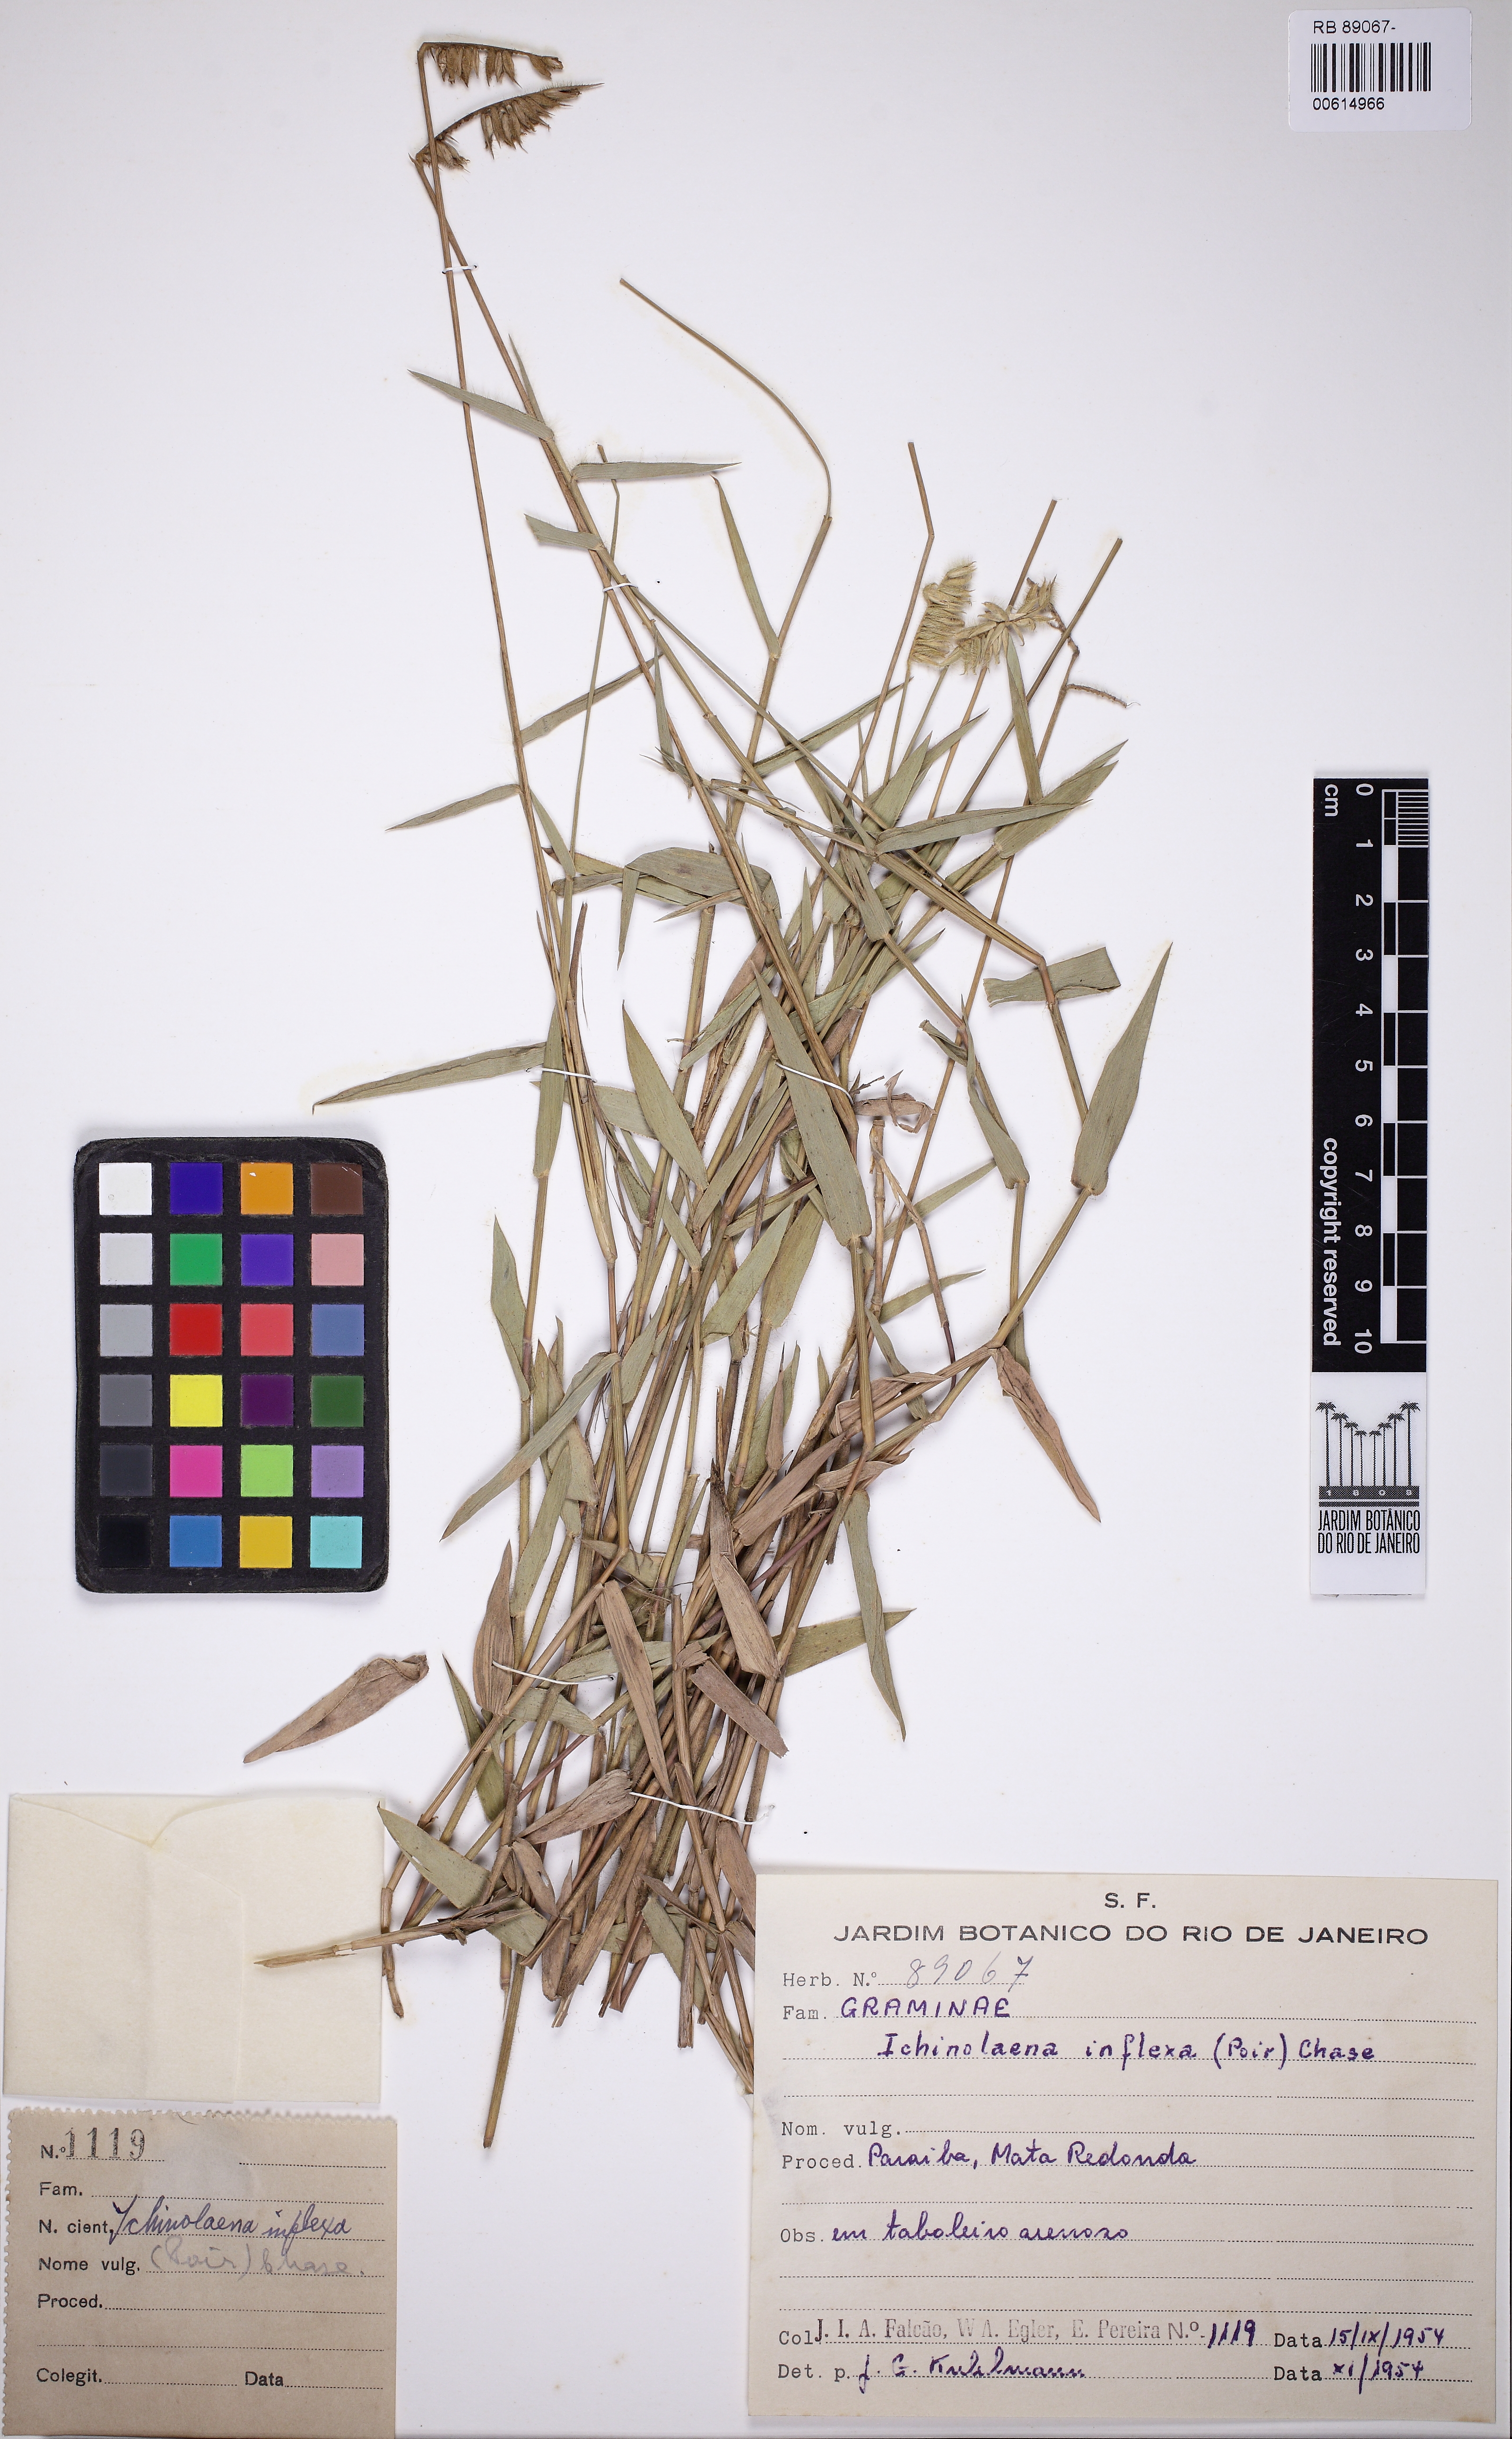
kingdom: Plantae
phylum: Tracheophyta
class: Liliopsida
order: Poales
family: Poaceae
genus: Echinolaena
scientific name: Echinolaena inflexa
